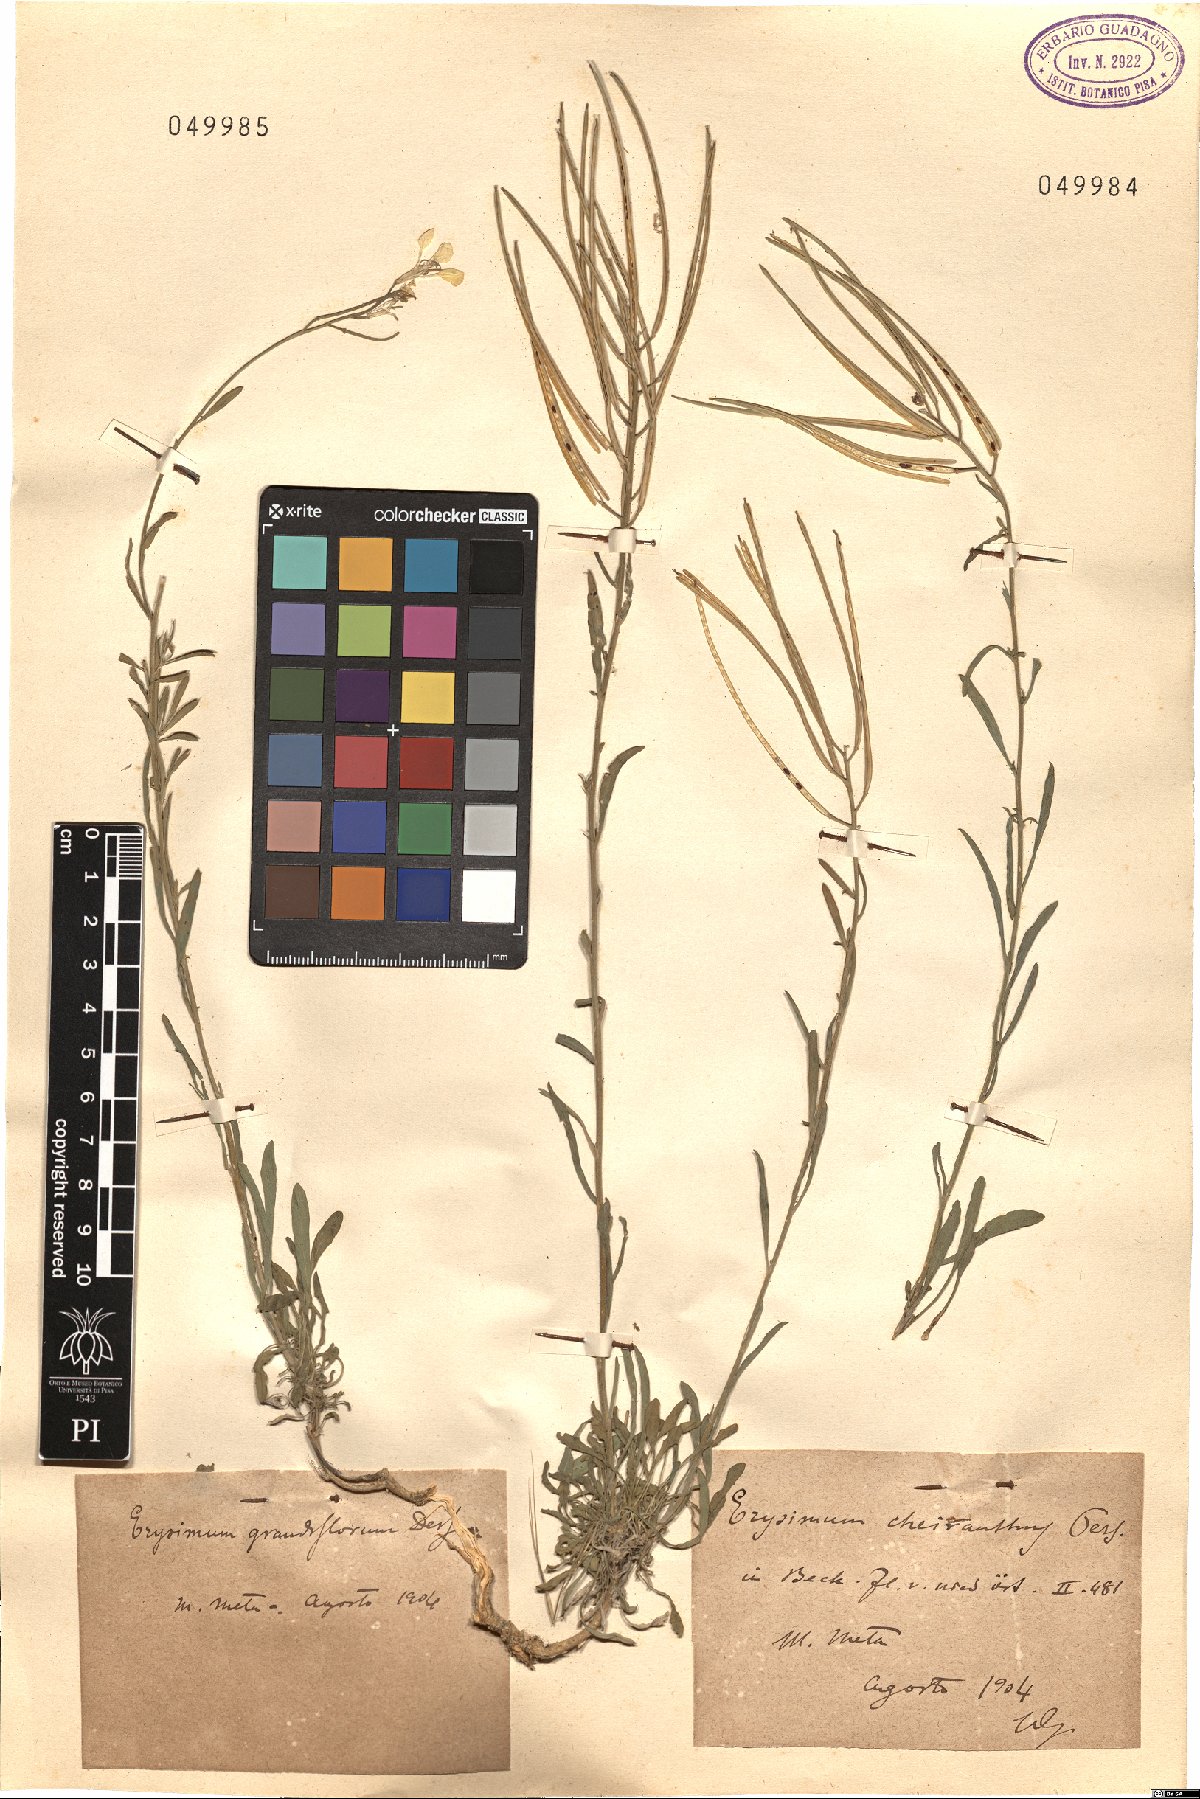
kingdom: Plantae
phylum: Tracheophyta
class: Magnoliopsida
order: Brassicales
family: Brassicaceae
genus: Erysimum
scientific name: Erysimum sylvestre
